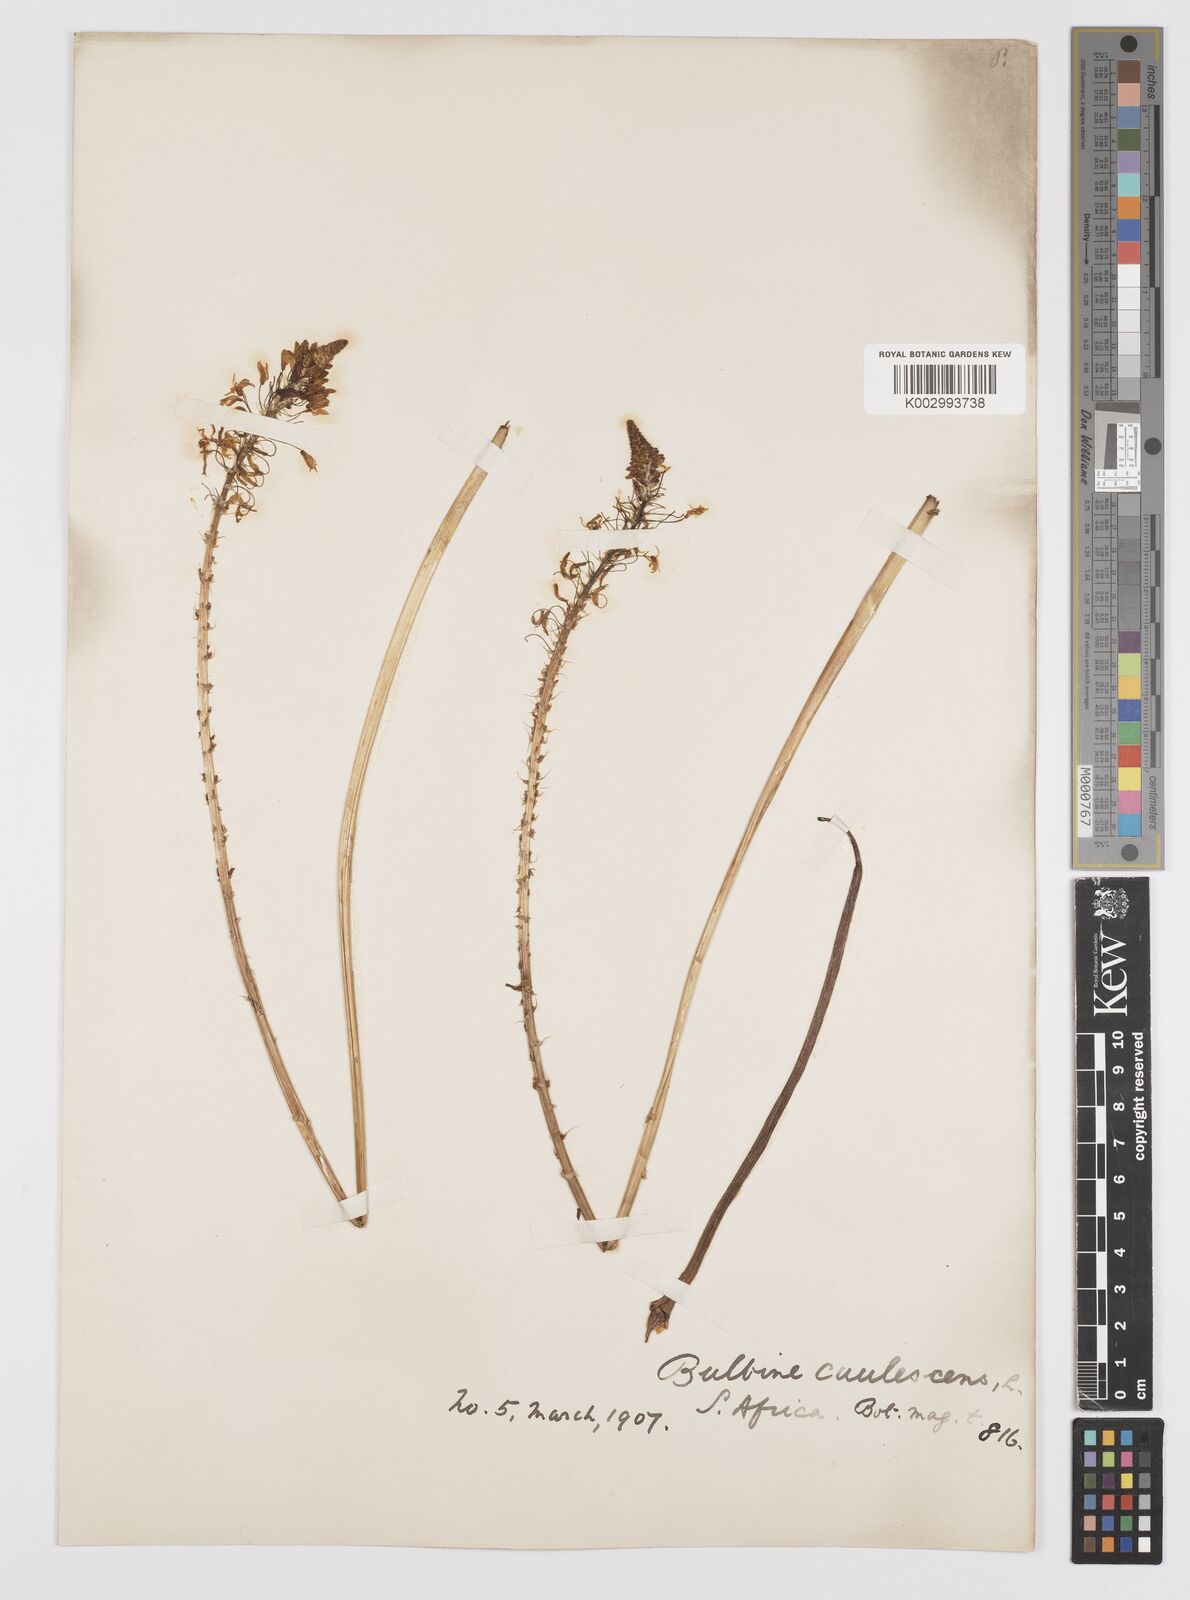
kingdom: Plantae
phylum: Tracheophyta
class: Liliopsida
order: Asparagales
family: Asphodelaceae
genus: Bulbine
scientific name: Bulbine frutescens
